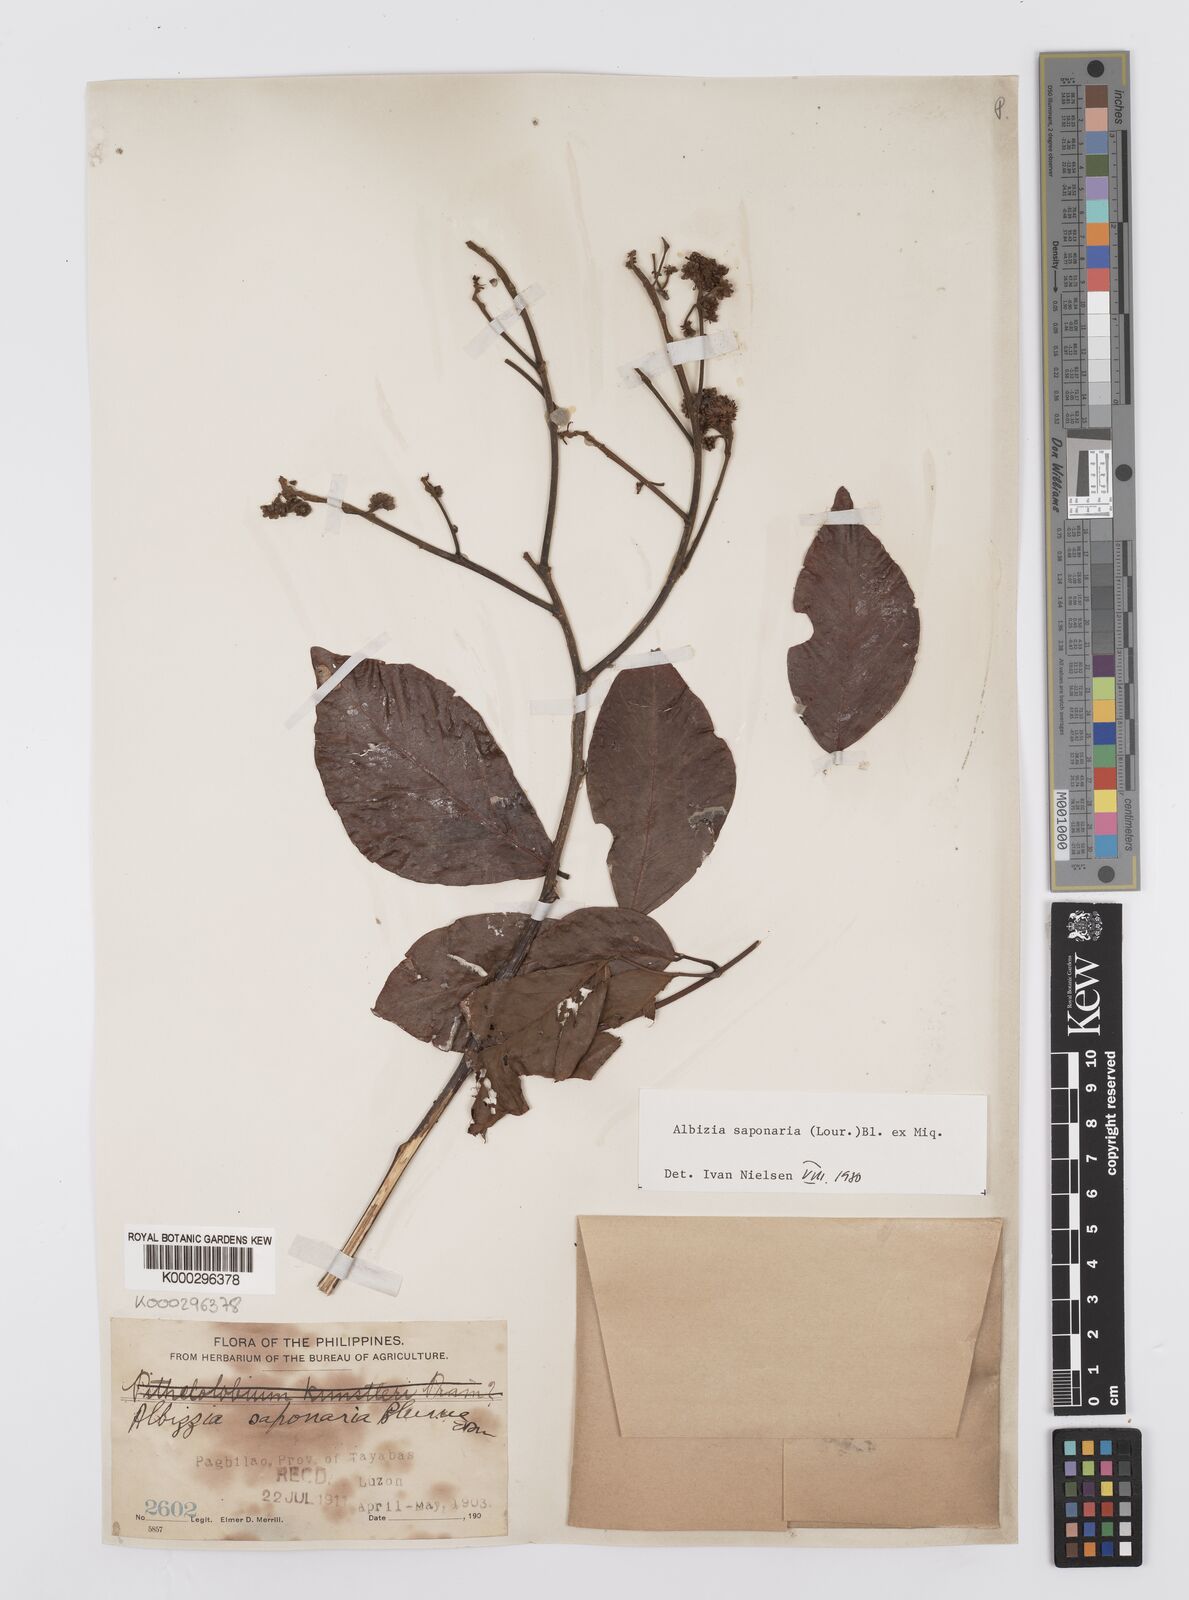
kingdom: Plantae
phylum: Tracheophyta
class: Magnoliopsida
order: Fabales
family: Fabaceae
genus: Albizia
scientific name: Albizia saponaria
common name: Whiteflower albizia
